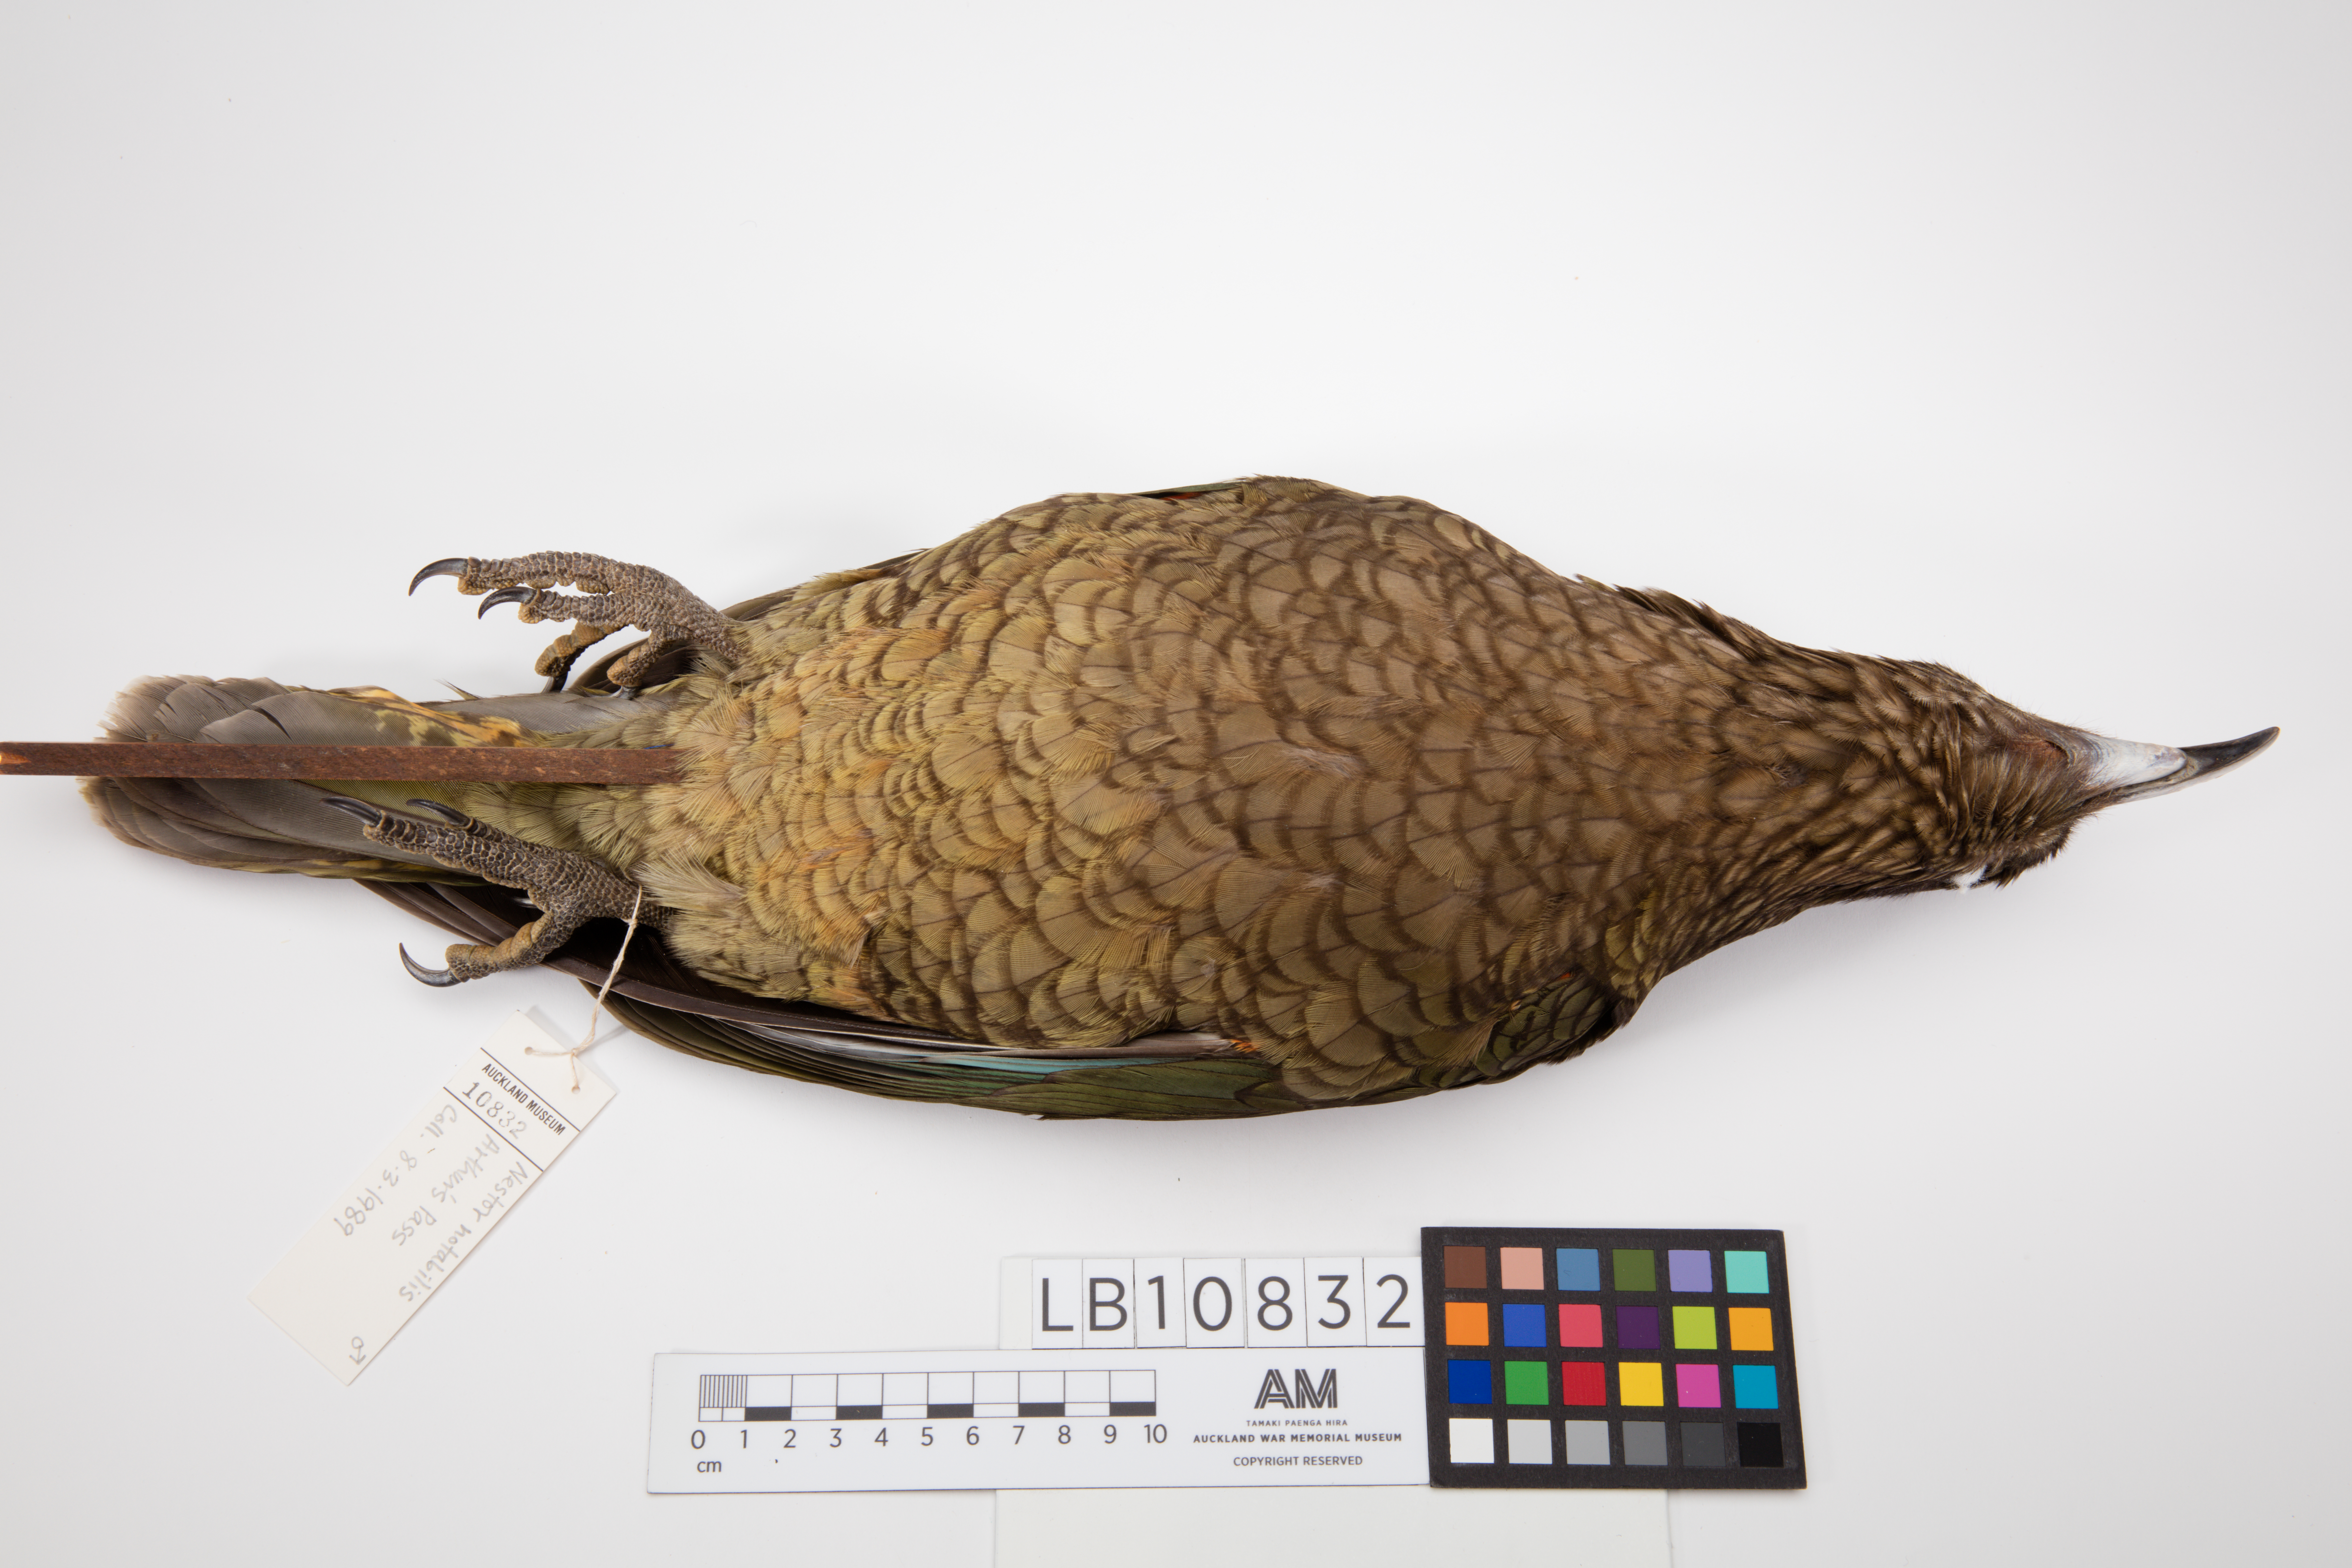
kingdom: Animalia
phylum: Chordata
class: Aves
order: Psittaciformes
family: Psittacidae
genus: Nestor
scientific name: Nestor notabilis
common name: Kea
